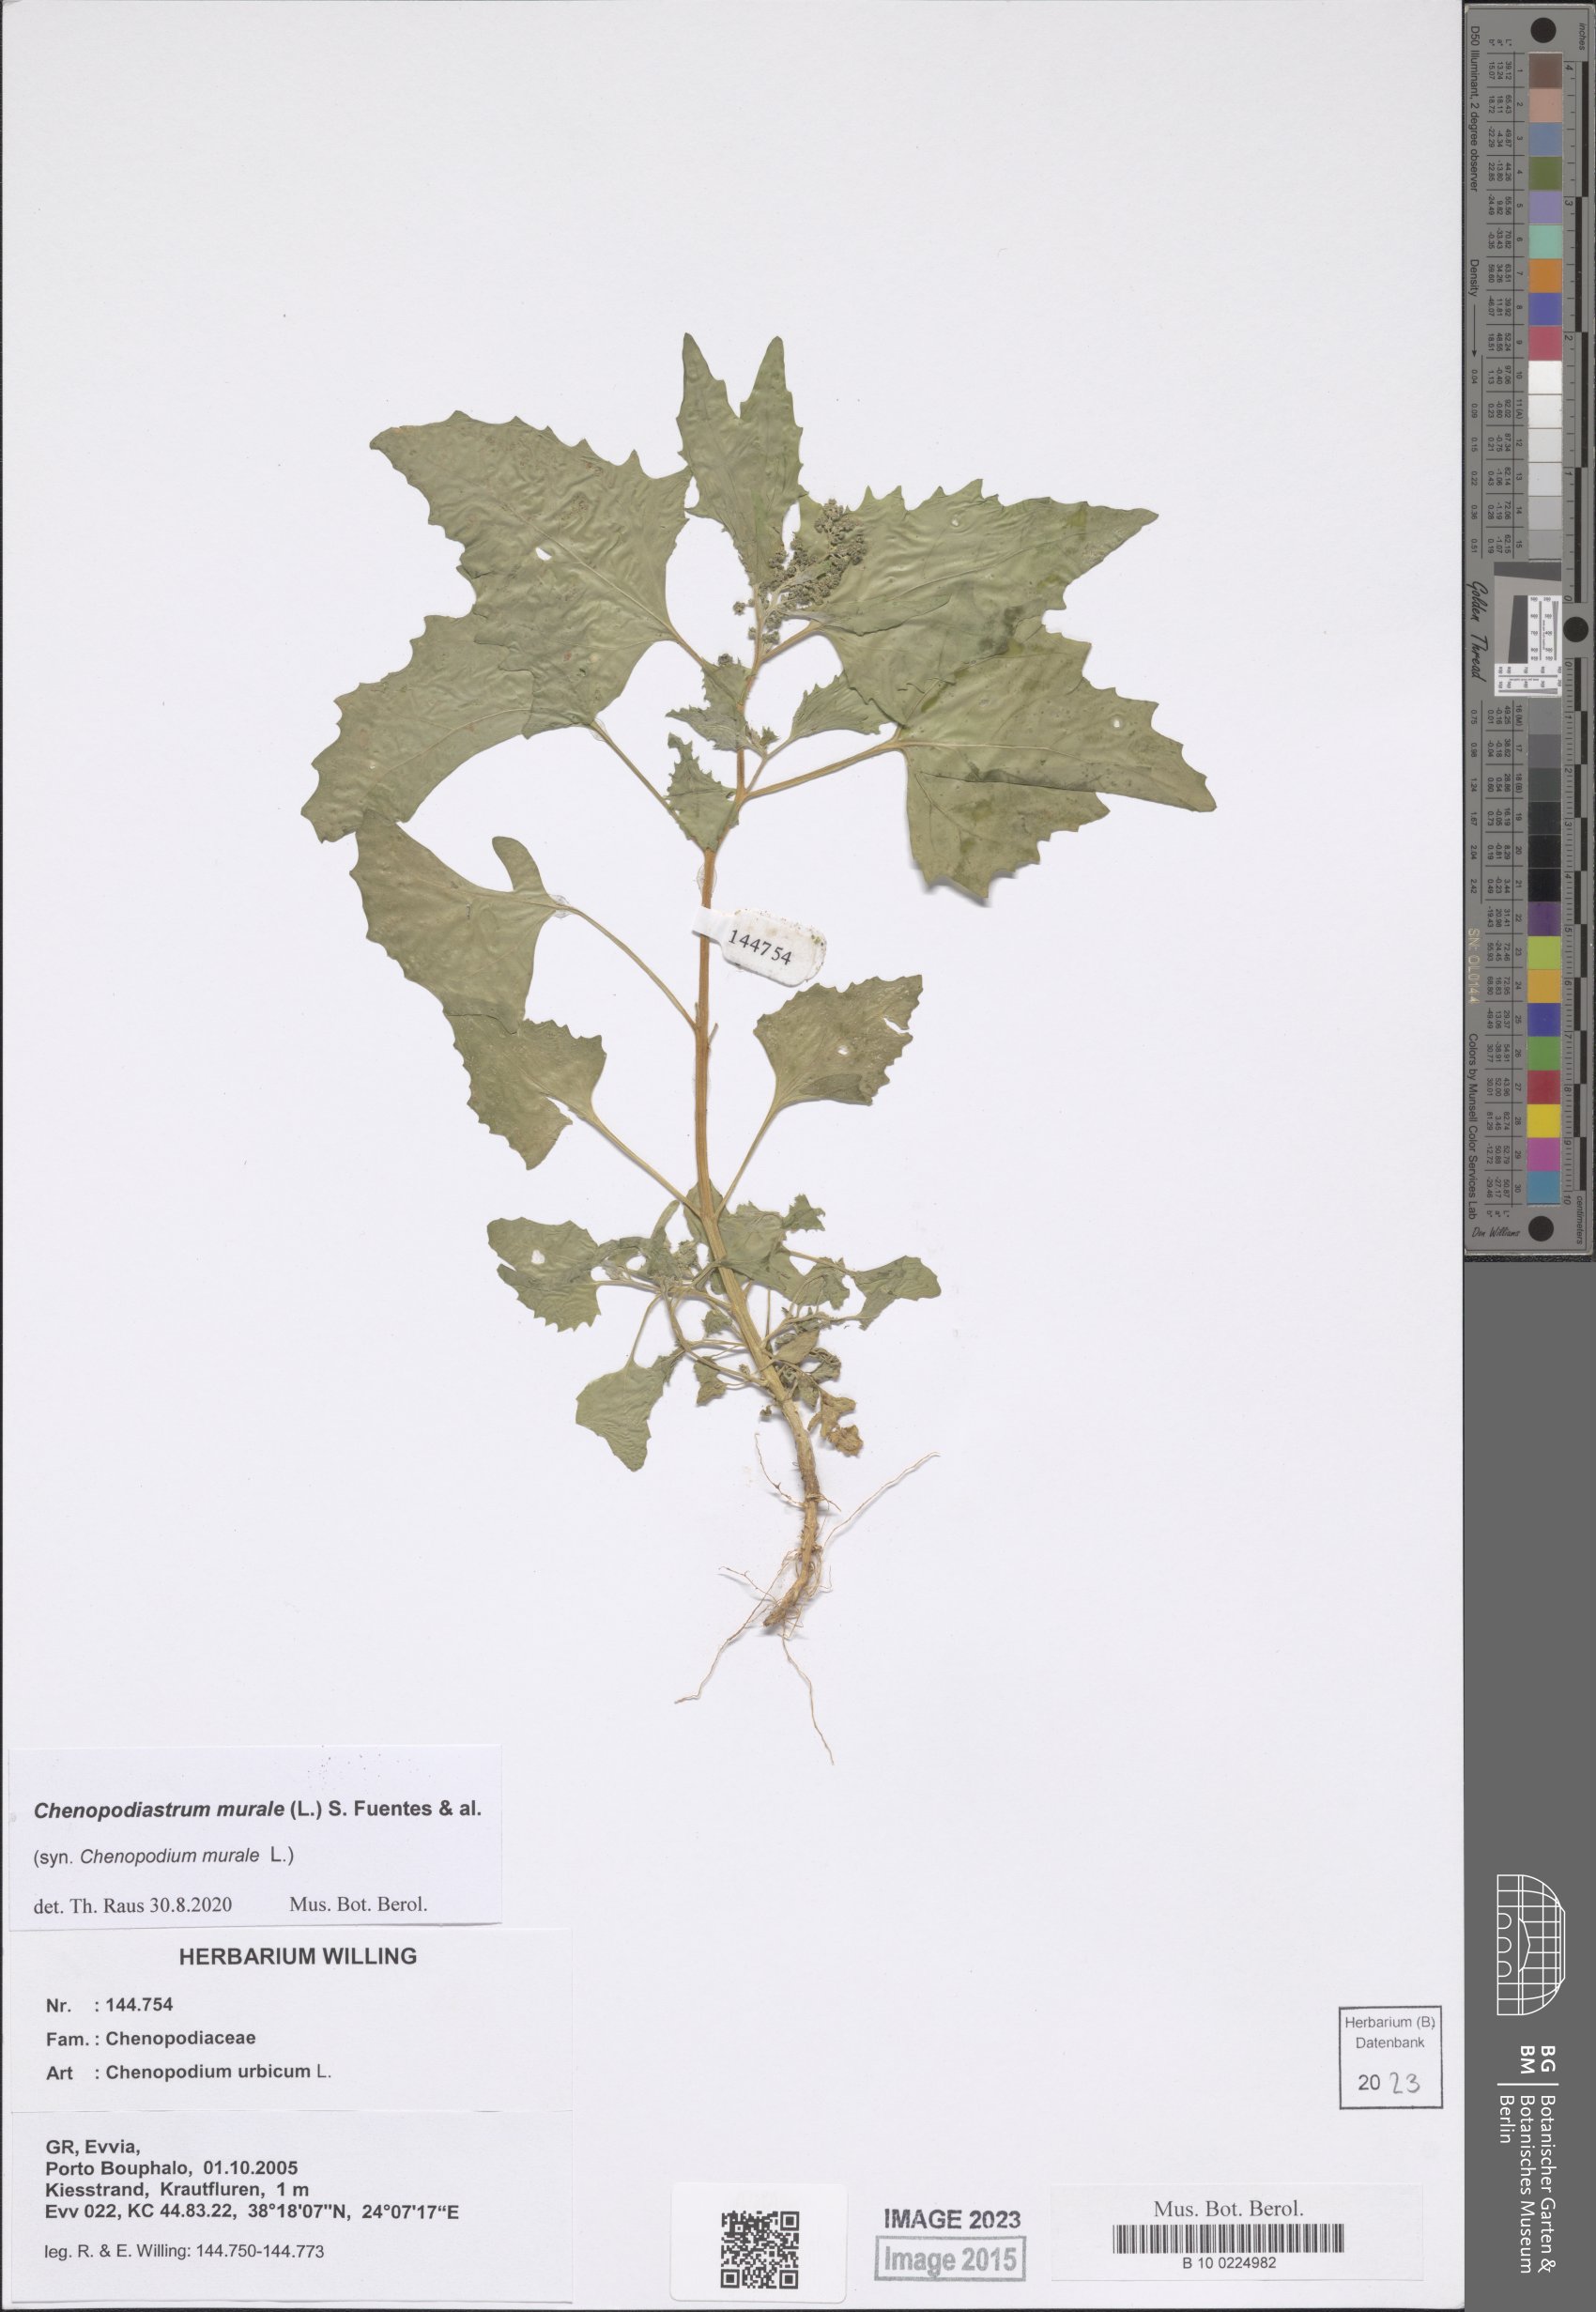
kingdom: Plantae
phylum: Tracheophyta
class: Magnoliopsida
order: Caryophyllales
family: Amaranthaceae
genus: Chenopodiastrum
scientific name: Chenopodiastrum murale
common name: Sowbane
